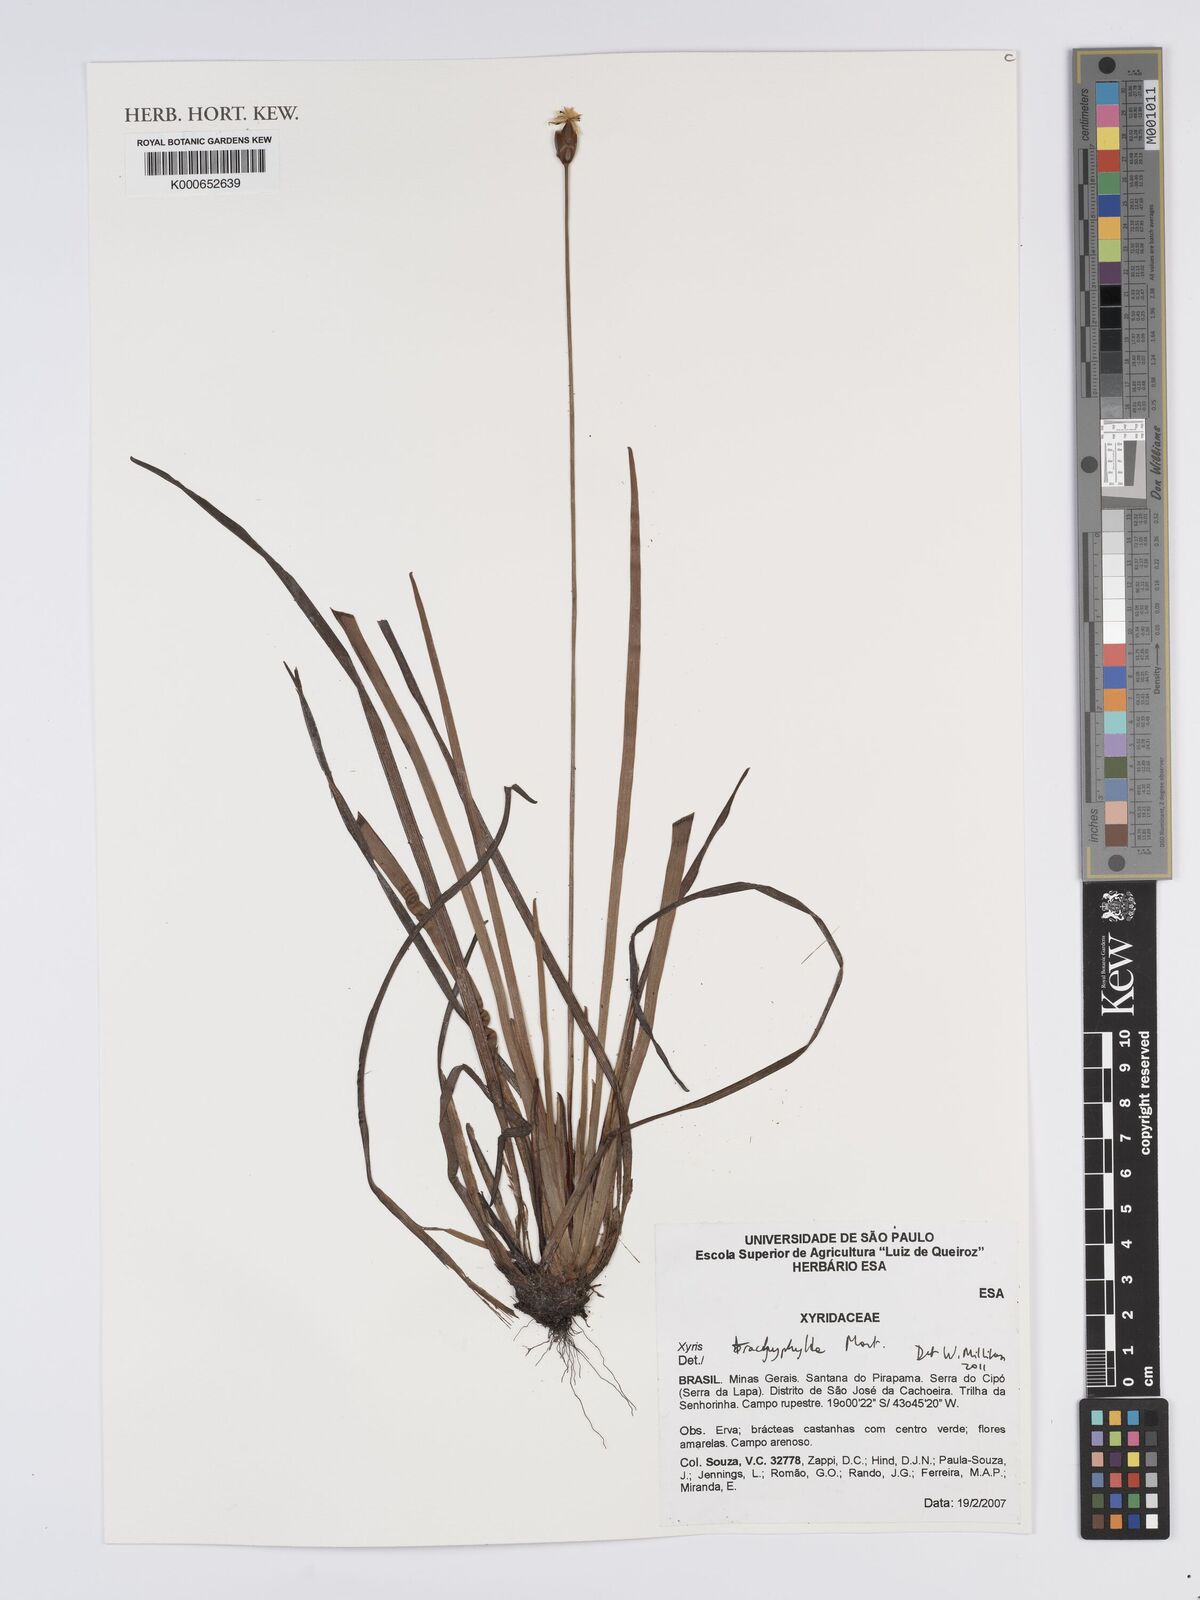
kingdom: Plantae
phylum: Tracheophyta
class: Liliopsida
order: Poales
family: Xyridaceae
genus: Xyris
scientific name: Xyris trachyphylla
